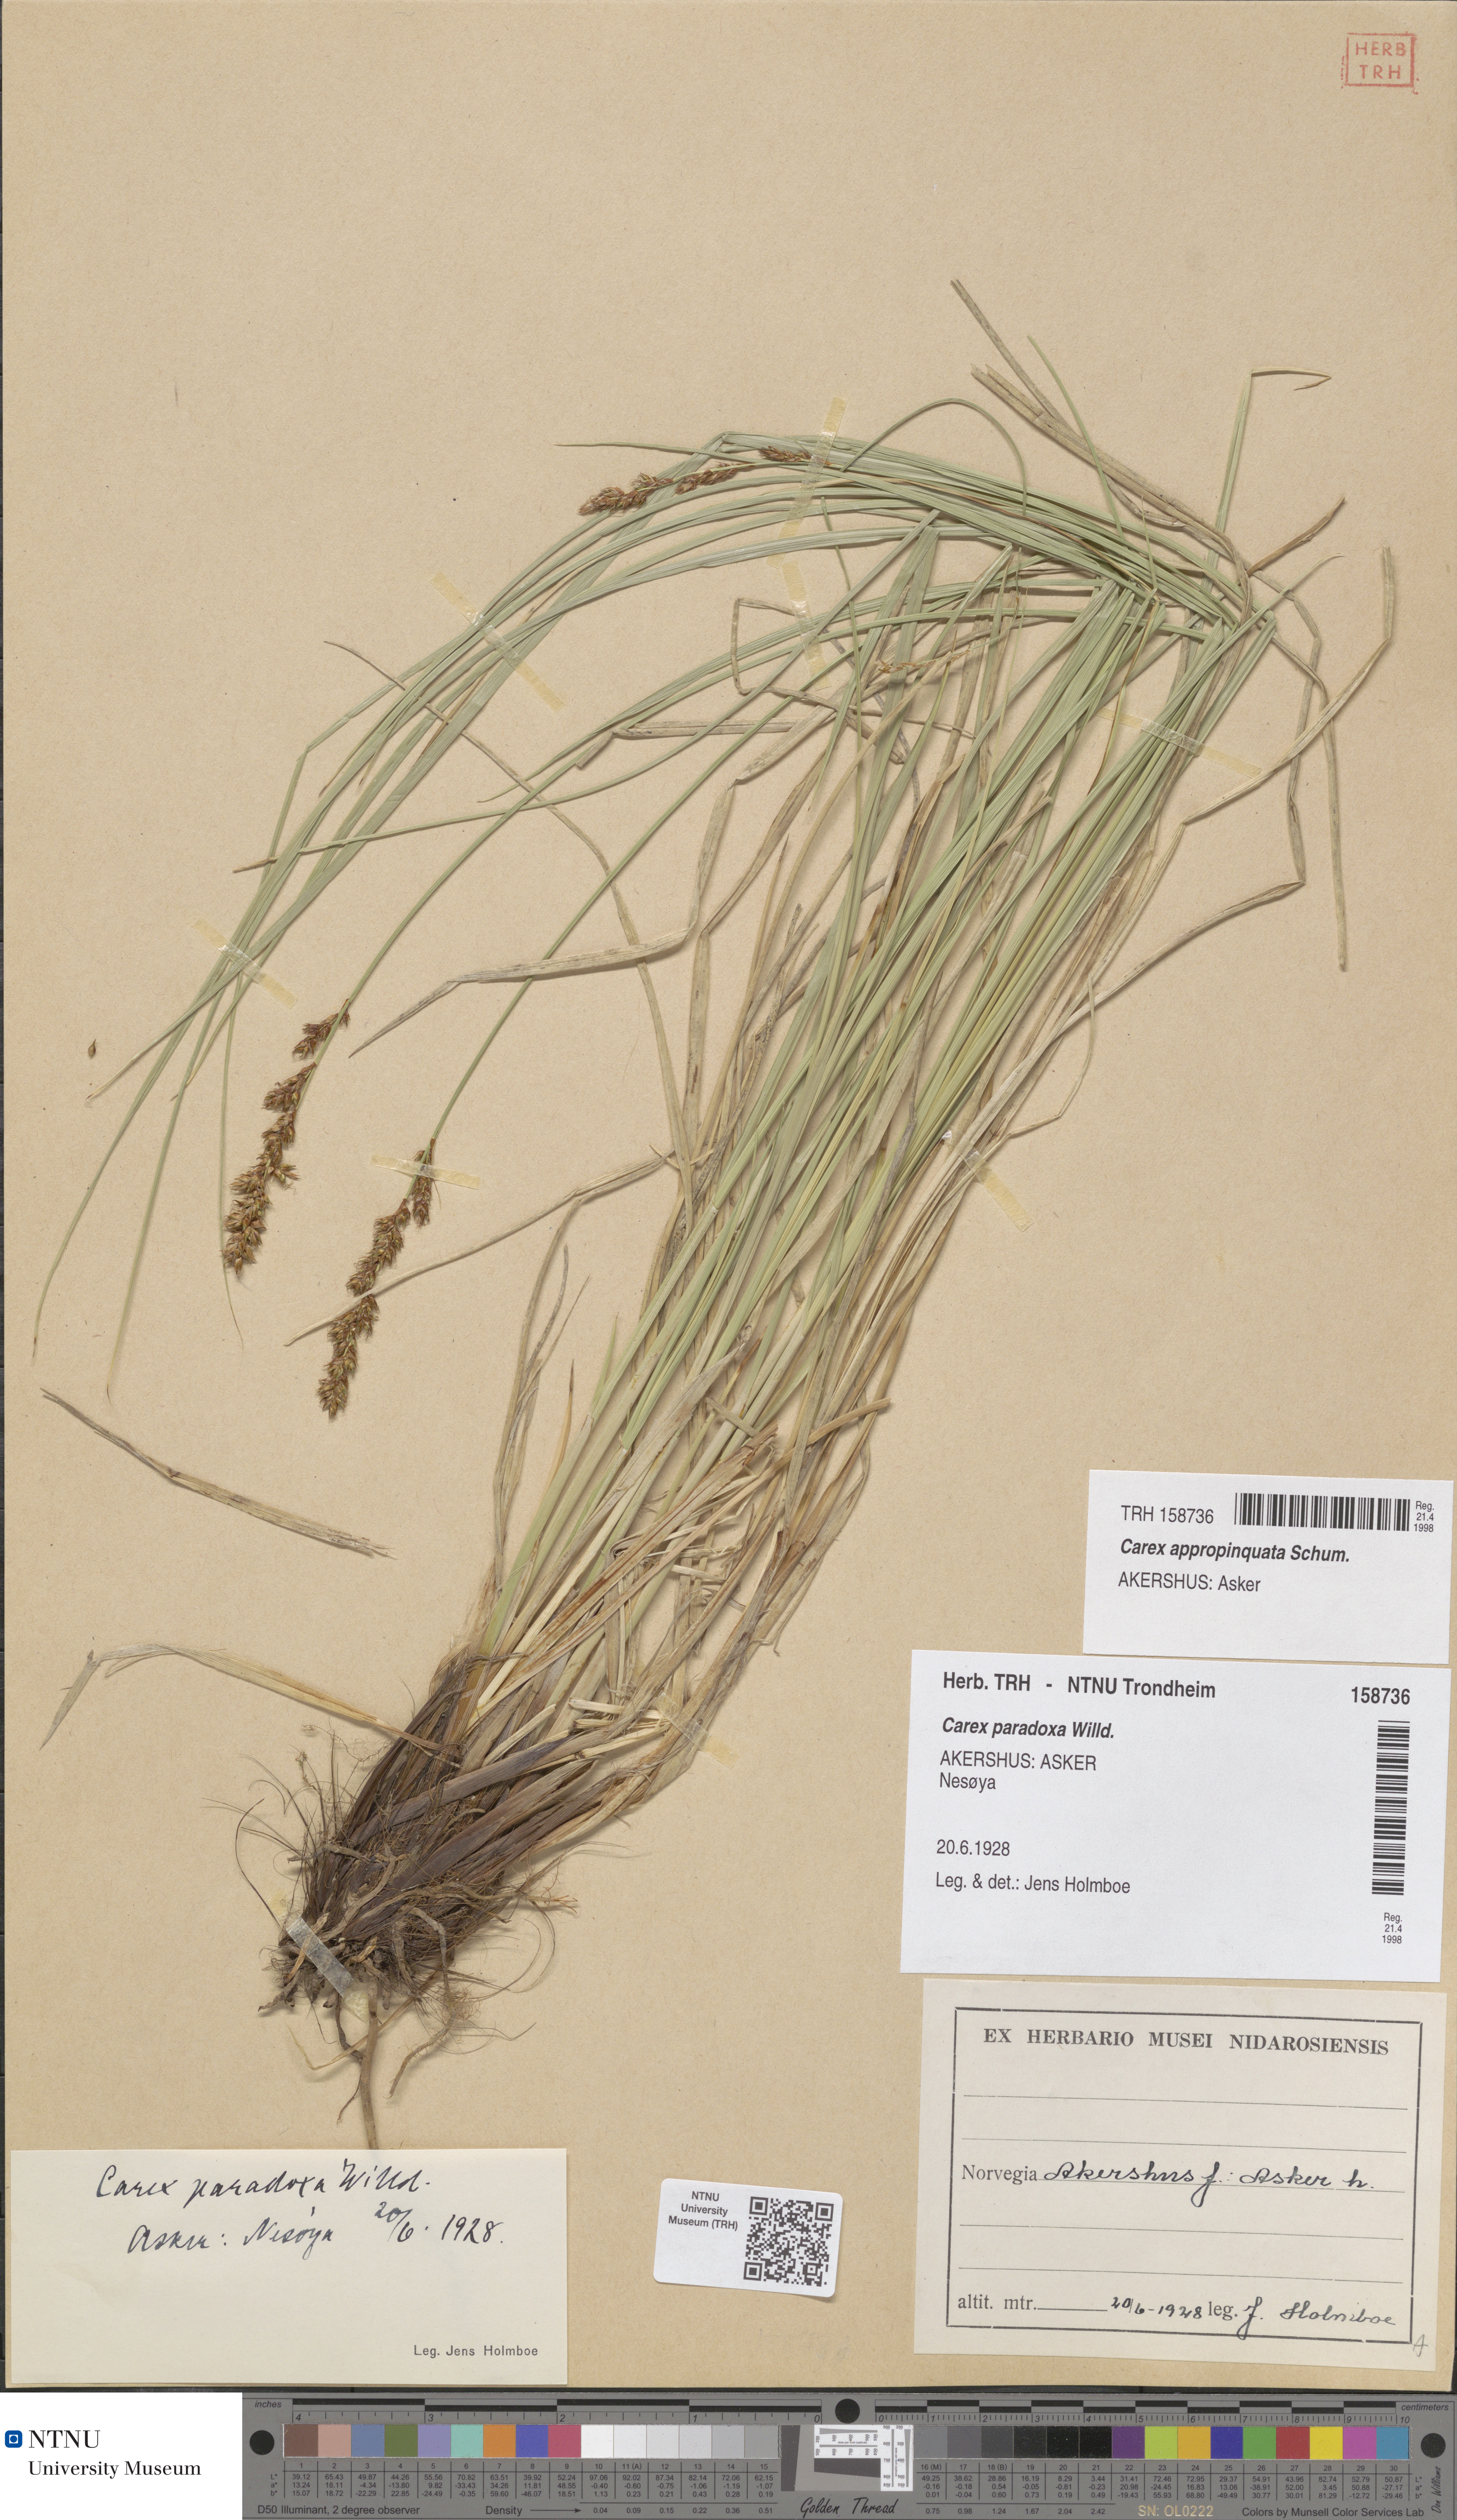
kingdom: Plantae
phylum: Tracheophyta
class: Liliopsida
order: Poales
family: Cyperaceae
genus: Carex
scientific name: Carex appropinquata
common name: Fibrous tussock-sedge
